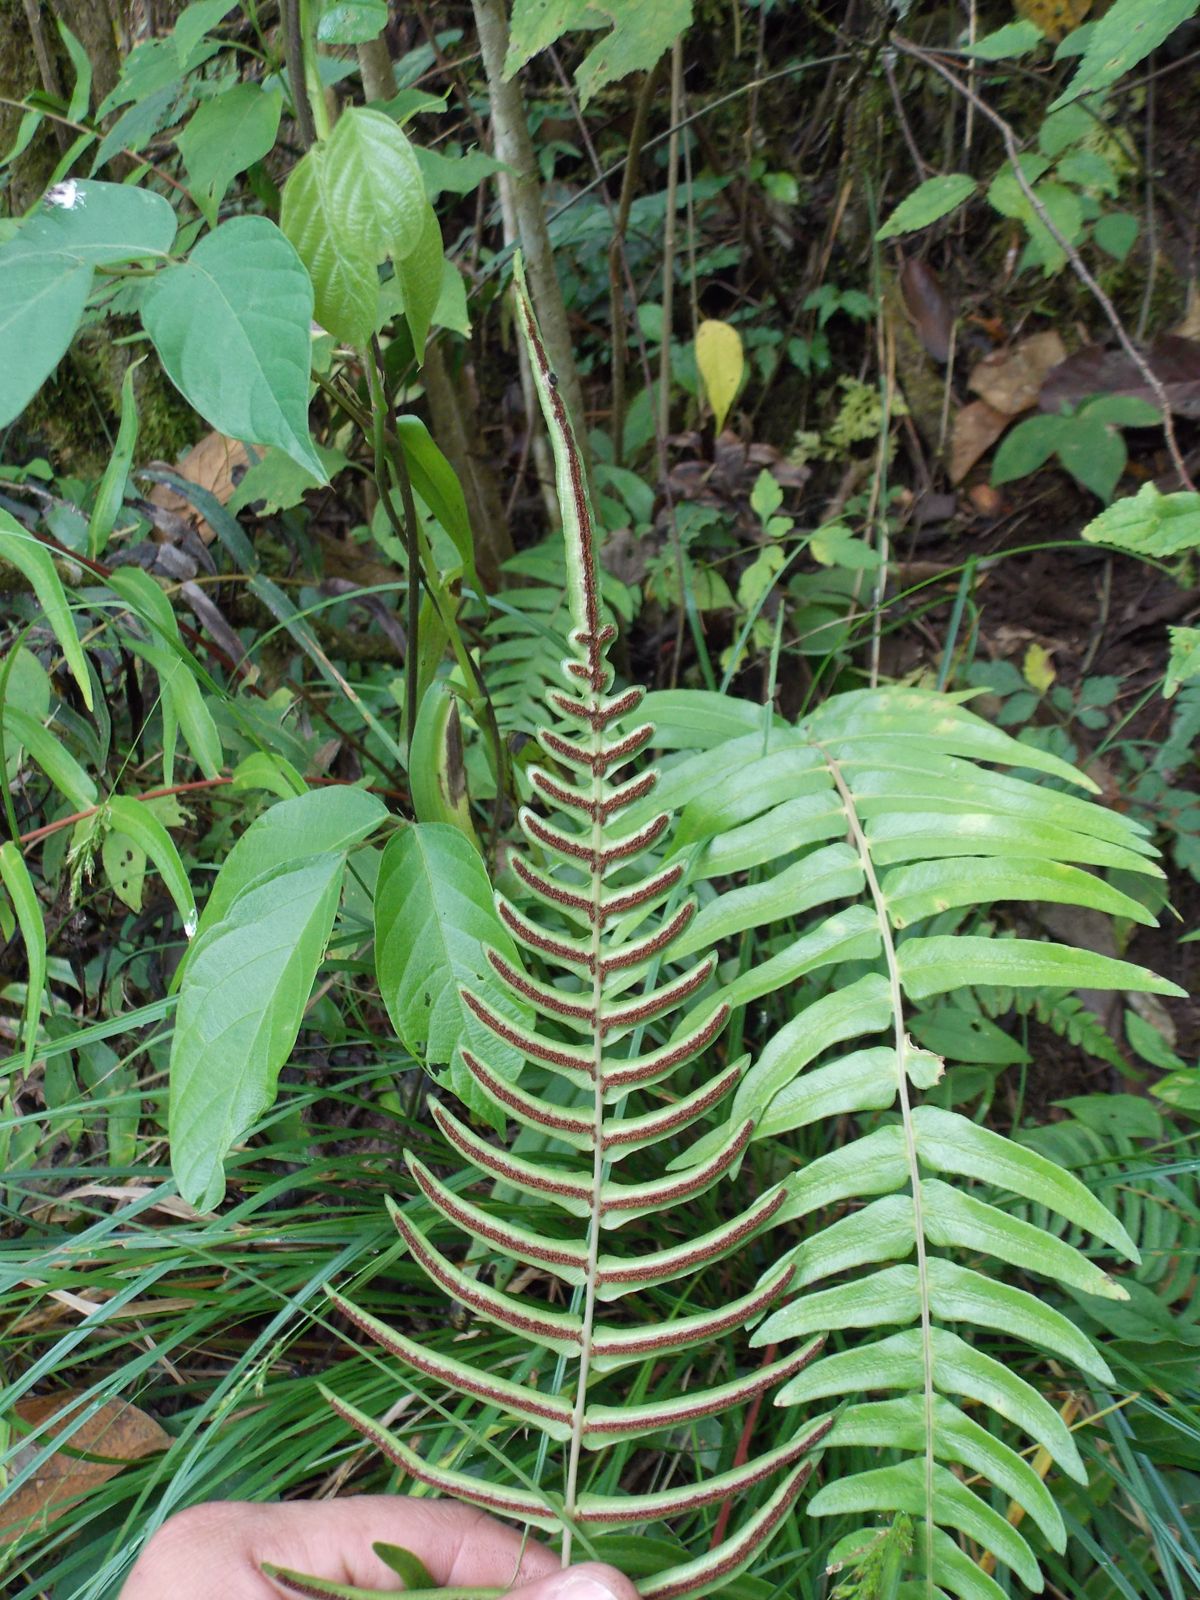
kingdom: Plantae
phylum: Tracheophyta
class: Polypodiopsida
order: Polypodiales
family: Blechnaceae
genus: Blechnum
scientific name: Blechnum appendiculatum
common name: Palm fern
